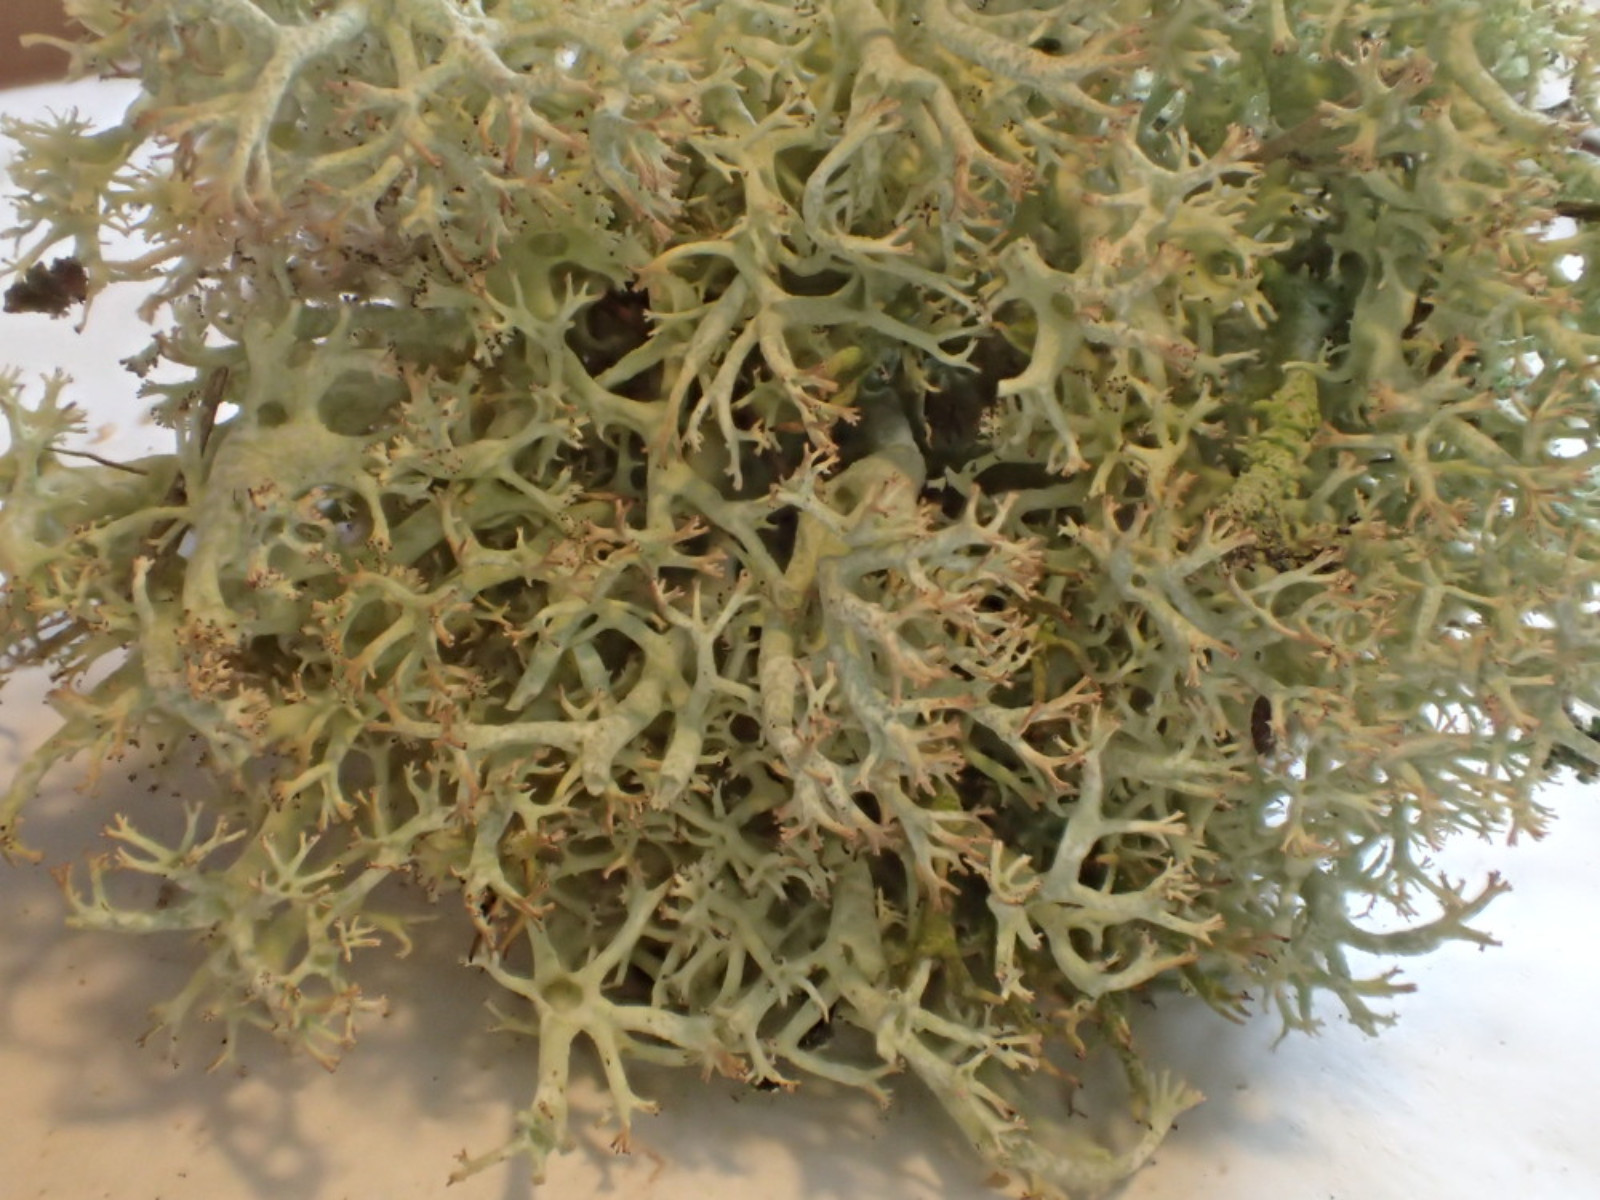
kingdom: Fungi
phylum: Ascomycota
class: Lecanoromycetes
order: Lecanorales
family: Cladoniaceae
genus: Cladonia
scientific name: Cladonia portentosa
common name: hede-rensdyrlav
